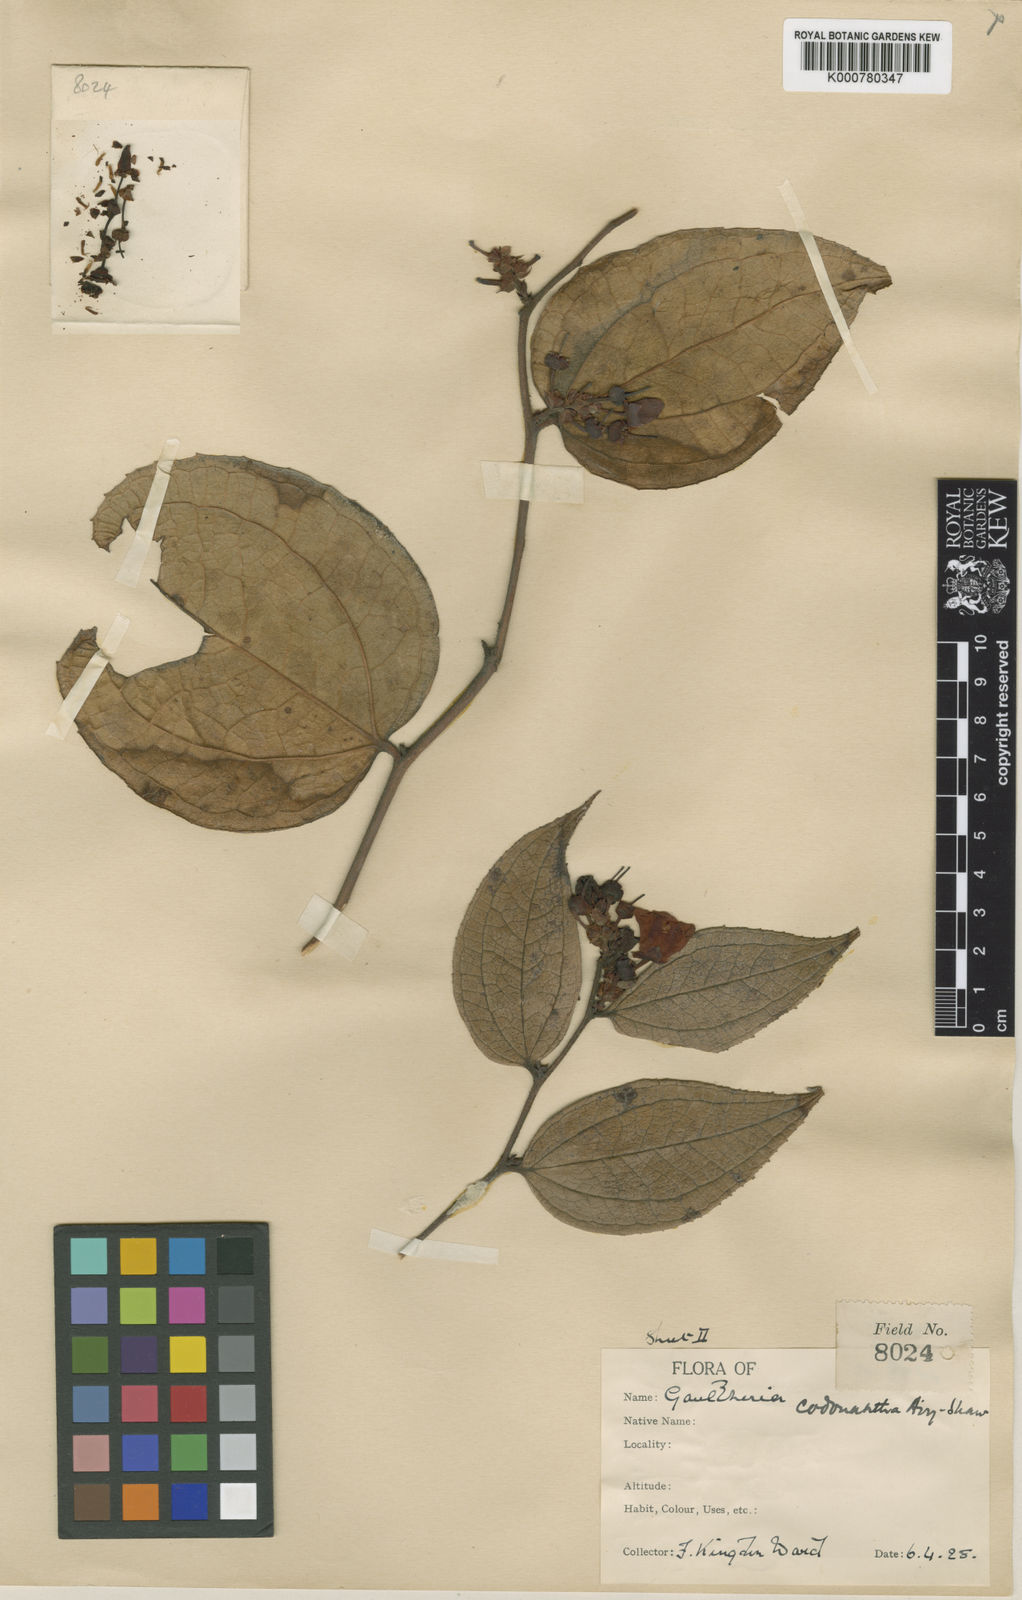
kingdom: Plantae
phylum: Tracheophyta
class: Magnoliopsida
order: Ericales
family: Ericaceae
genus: Gaultheria
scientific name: Gaultheria codonantha
